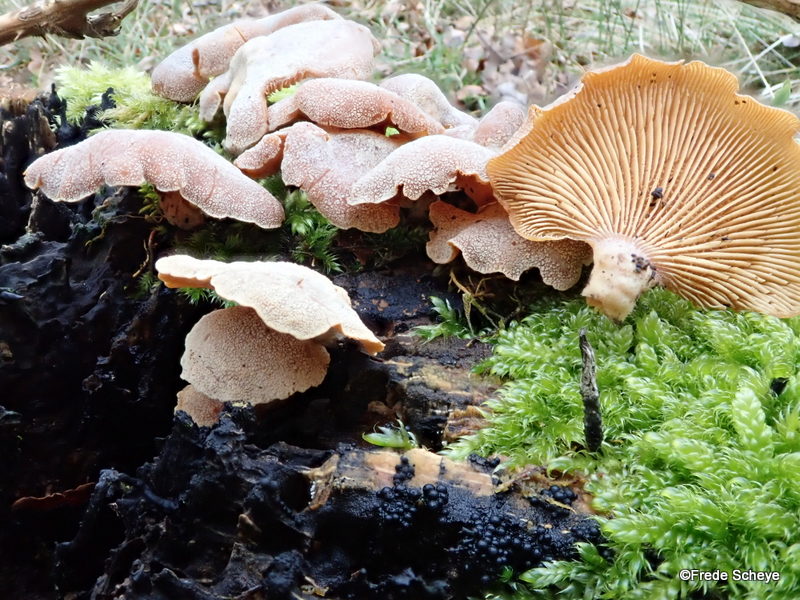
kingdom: Fungi
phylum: Basidiomycota
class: Agaricomycetes
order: Agaricales
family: Mycenaceae
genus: Panellus
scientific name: Panellus stipticus
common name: kliddet epaulethat
